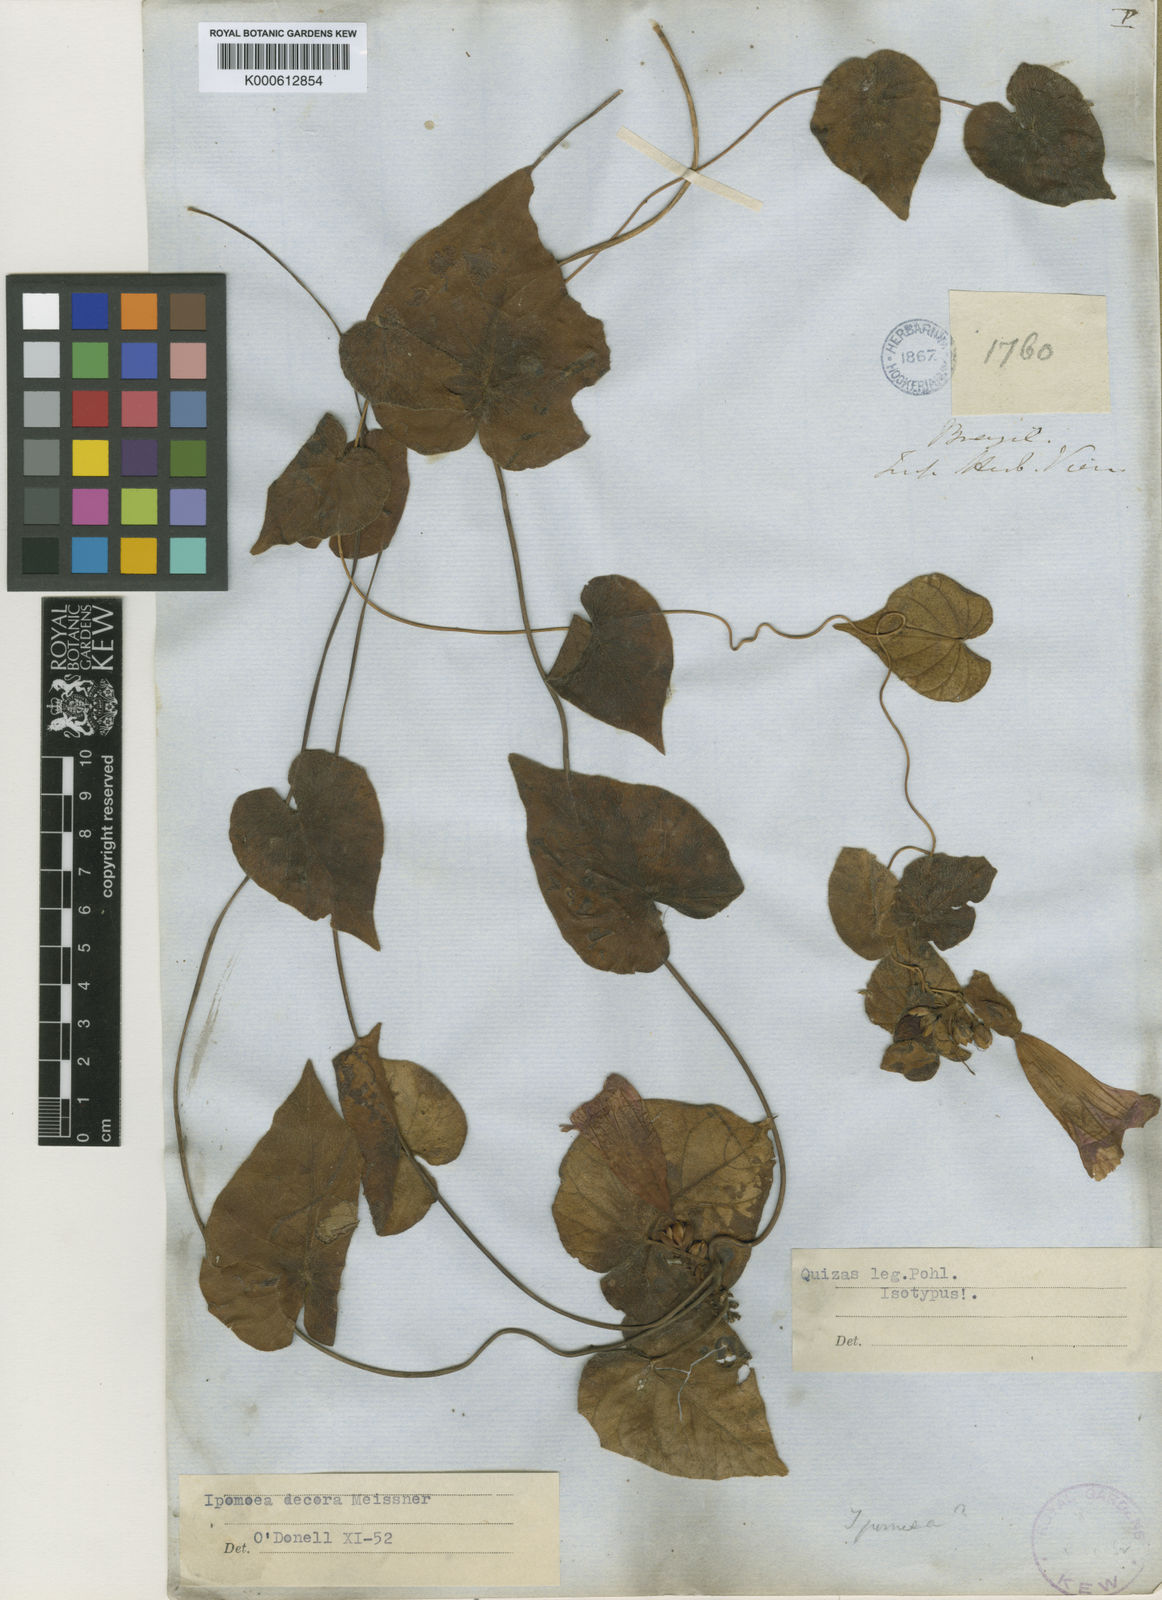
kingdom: Plantae
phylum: Tracheophyta
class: Magnoliopsida
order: Solanales
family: Convolvulaceae
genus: Ipomoea
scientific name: Ipomoea goyazensis
